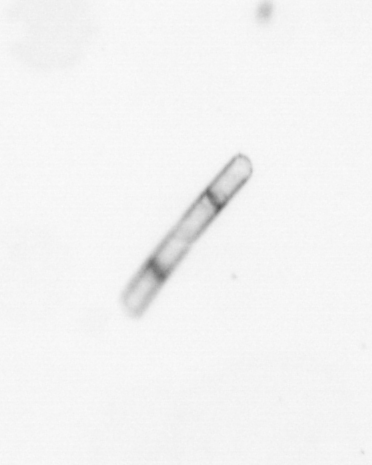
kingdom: Chromista
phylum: Ochrophyta
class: Bacillariophyceae
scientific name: Bacillariophyceae
